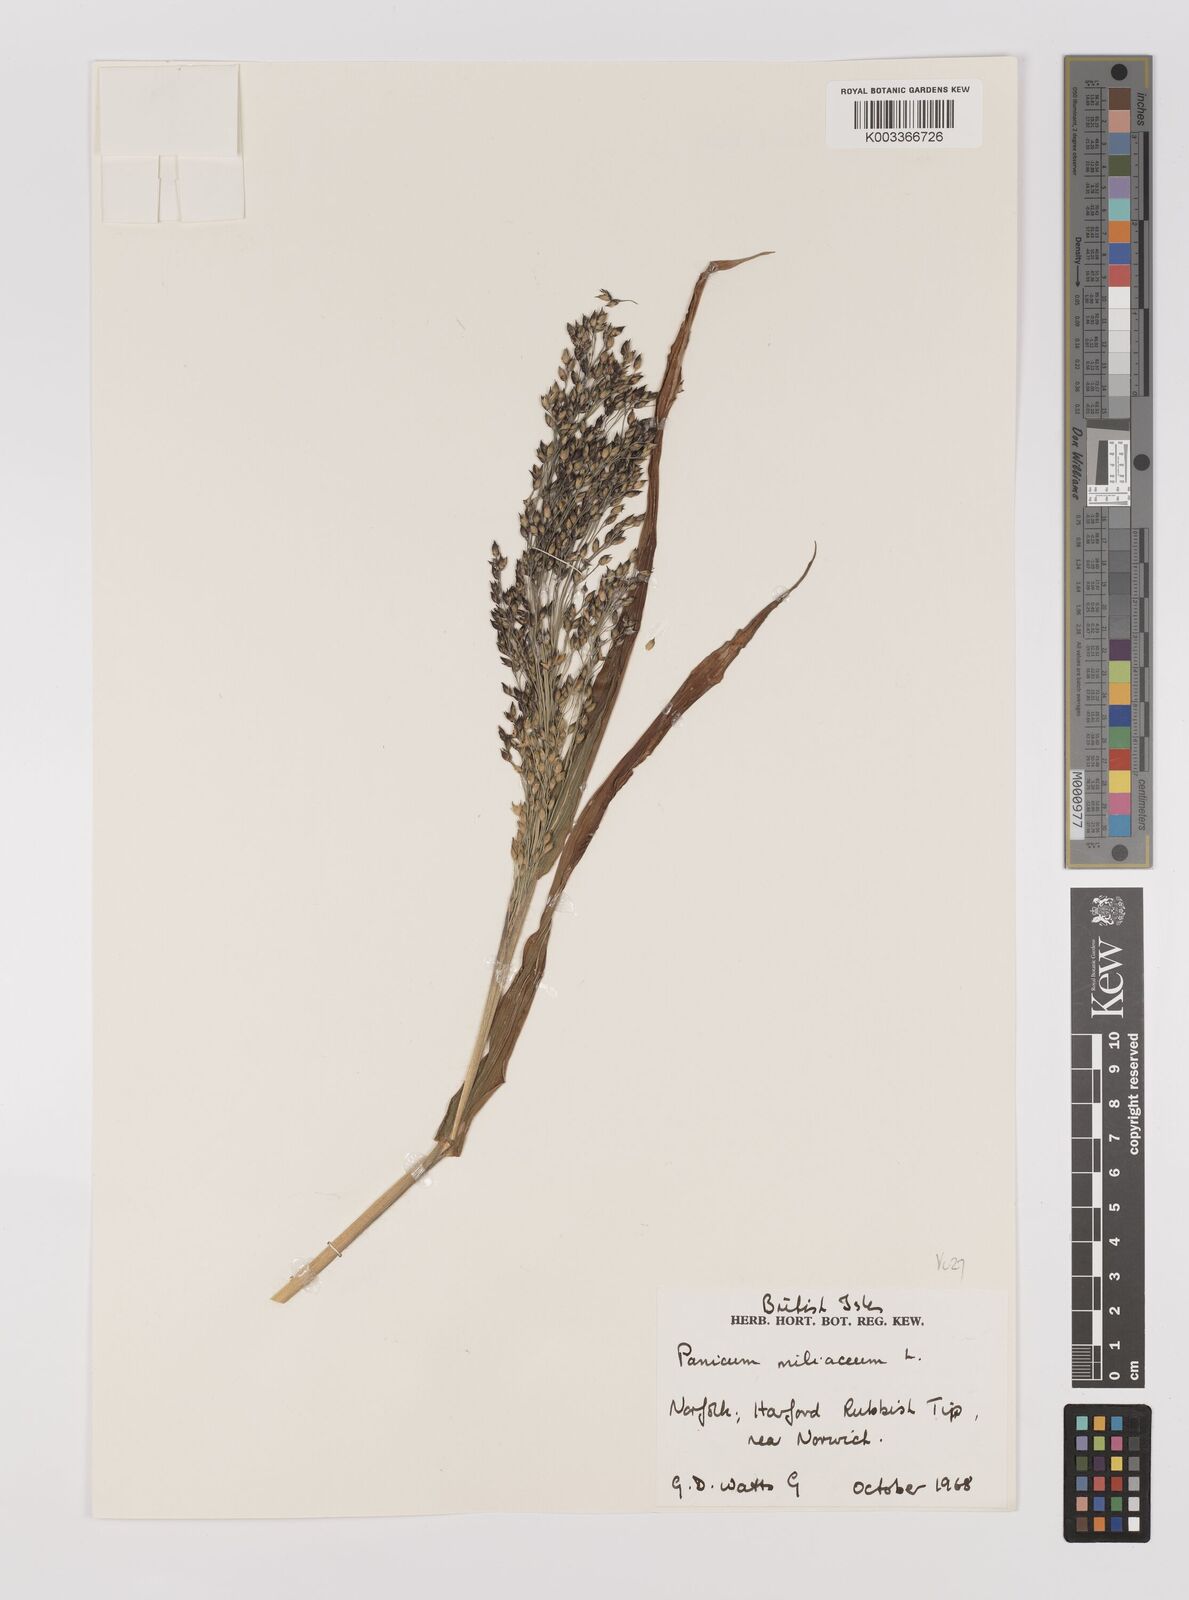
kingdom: Plantae
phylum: Tracheophyta
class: Liliopsida
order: Poales
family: Poaceae
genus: Panicum
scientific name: Panicum miliaceum
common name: Common millet
